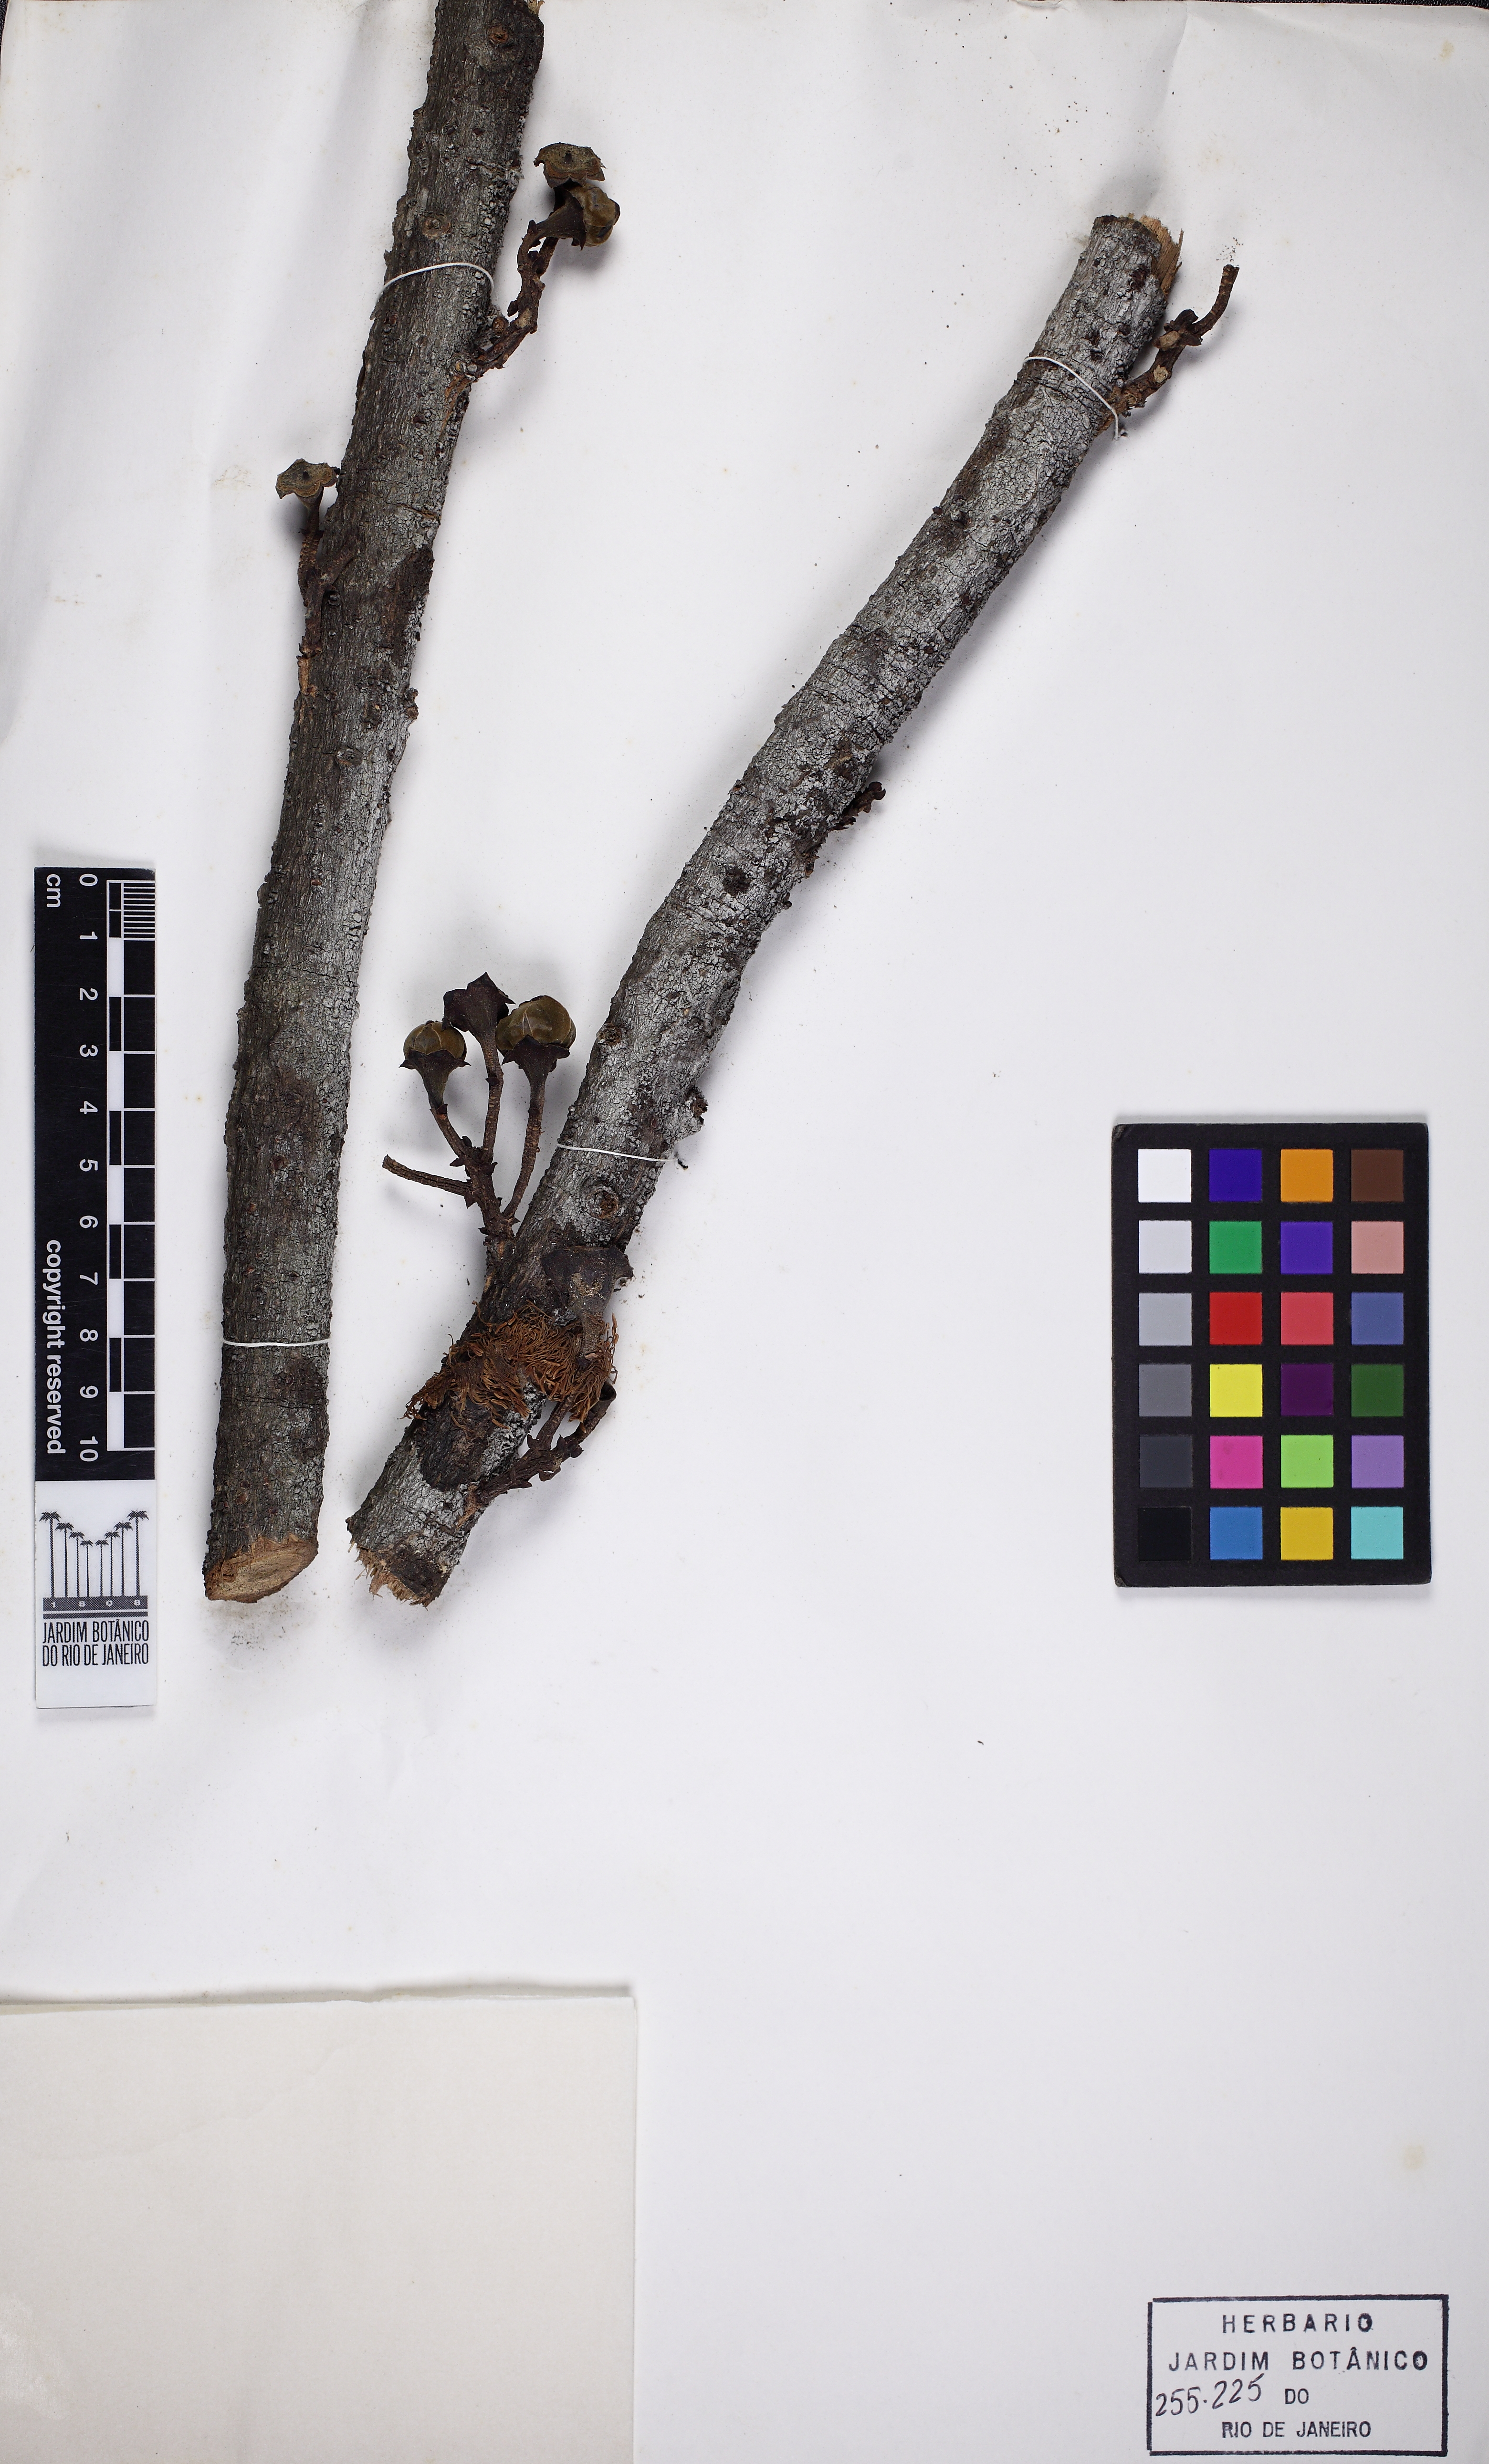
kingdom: Plantae
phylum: Tracheophyta
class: Magnoliopsida
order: Ericales
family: Lecythidaceae
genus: Gustavia
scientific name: Gustavia augusta
